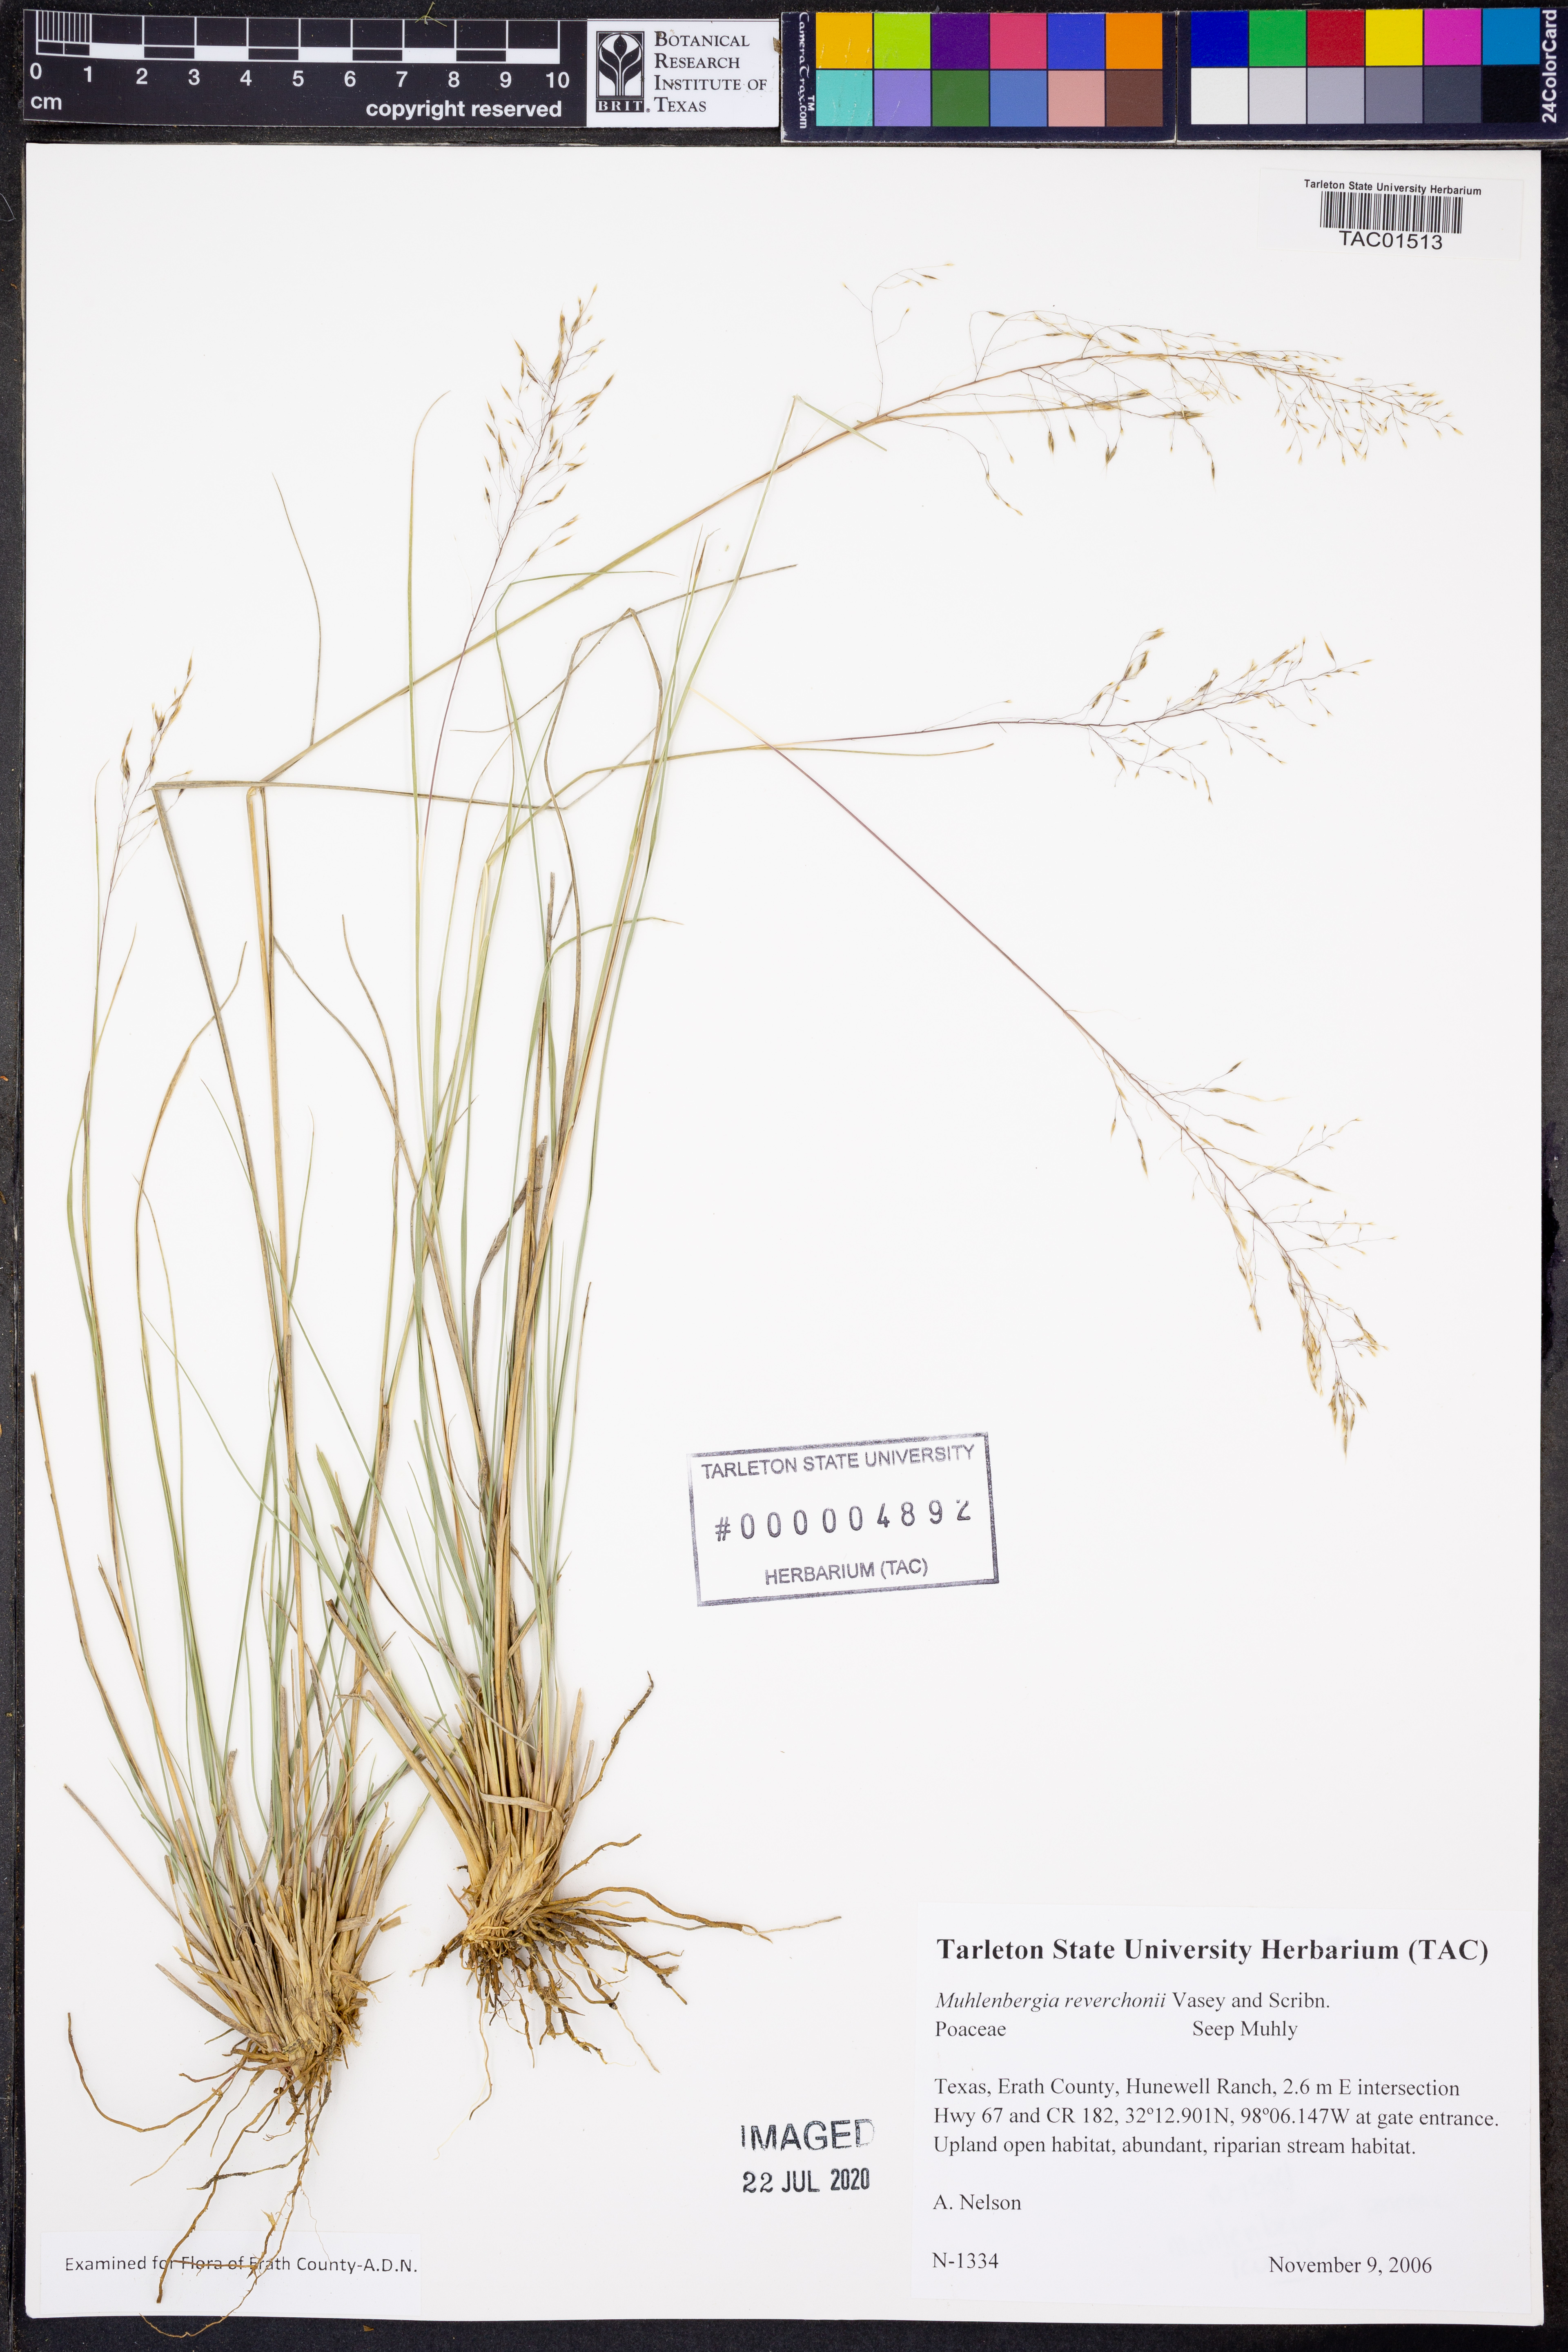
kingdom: Plantae
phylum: Tracheophyta
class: Liliopsida
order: Poales
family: Poaceae
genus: Muhlenbergia
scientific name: Muhlenbergia reverchonii
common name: Seep muhly
